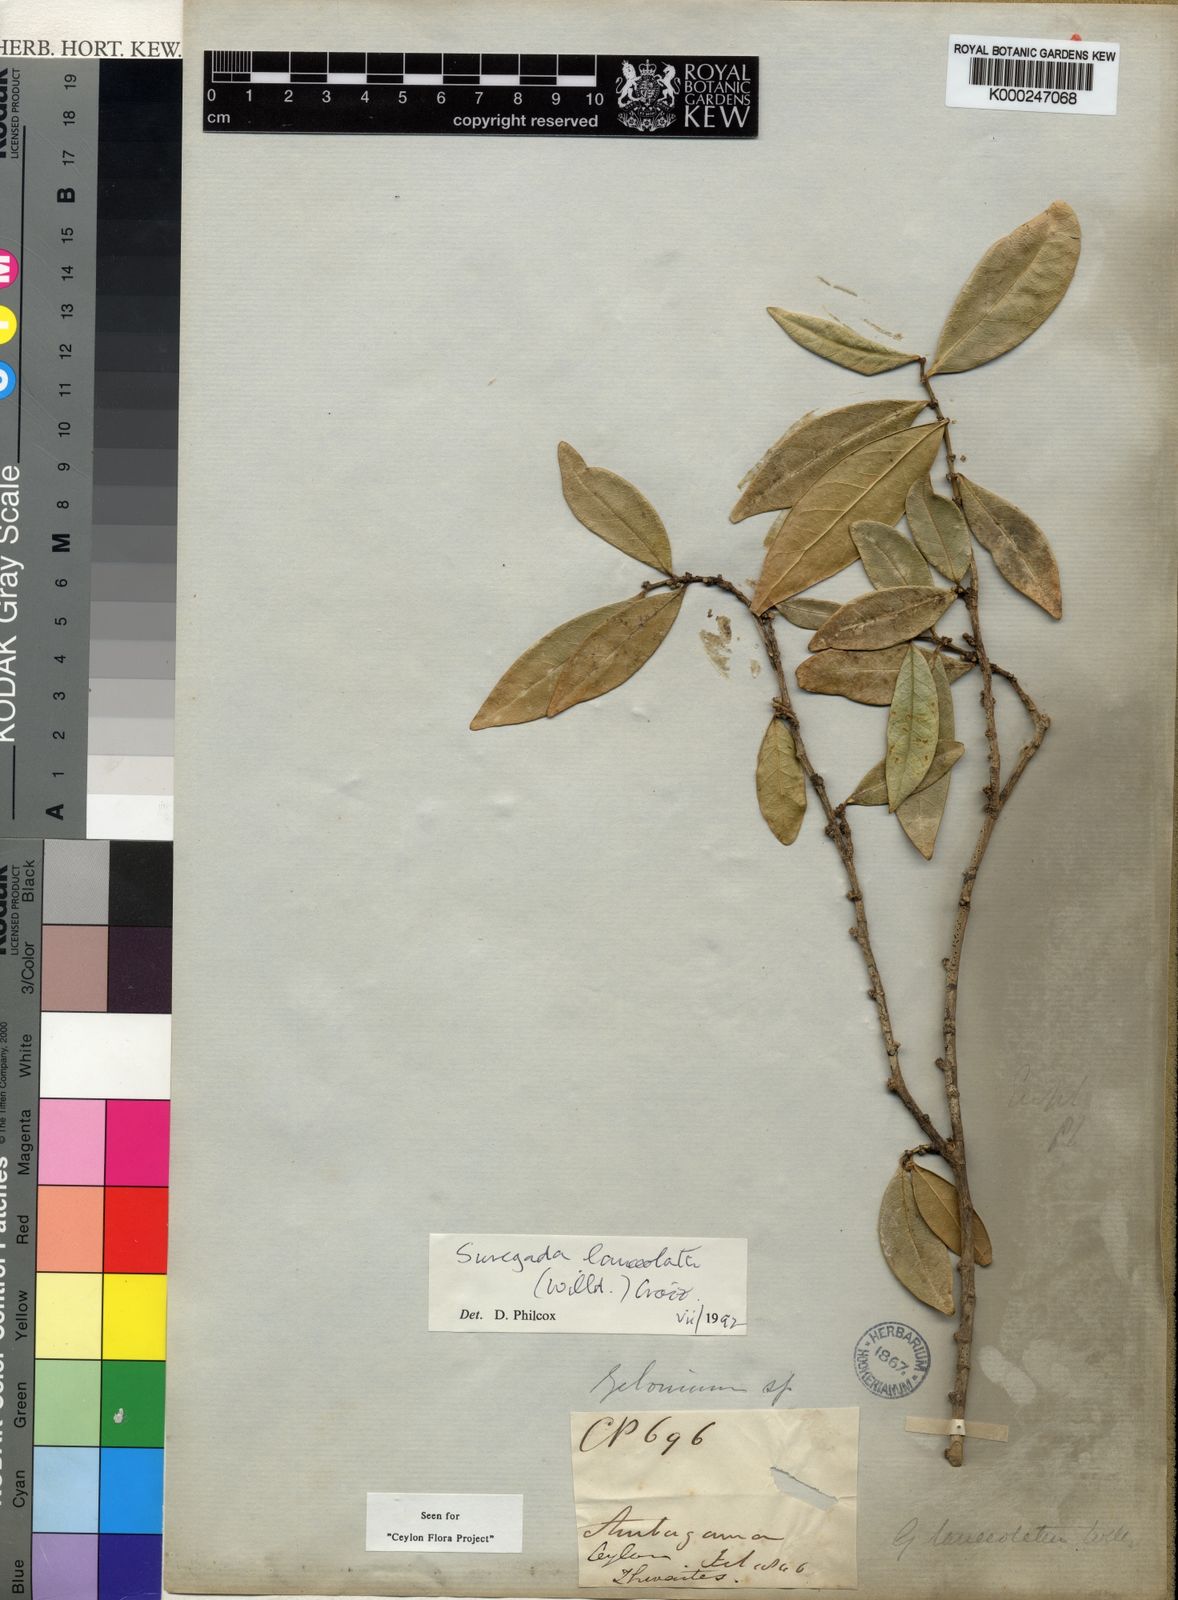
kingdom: Plantae
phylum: Tracheophyta
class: Magnoliopsida
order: Malpighiales
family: Euphorbiaceae
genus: Suregada
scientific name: Suregada lanceolata
